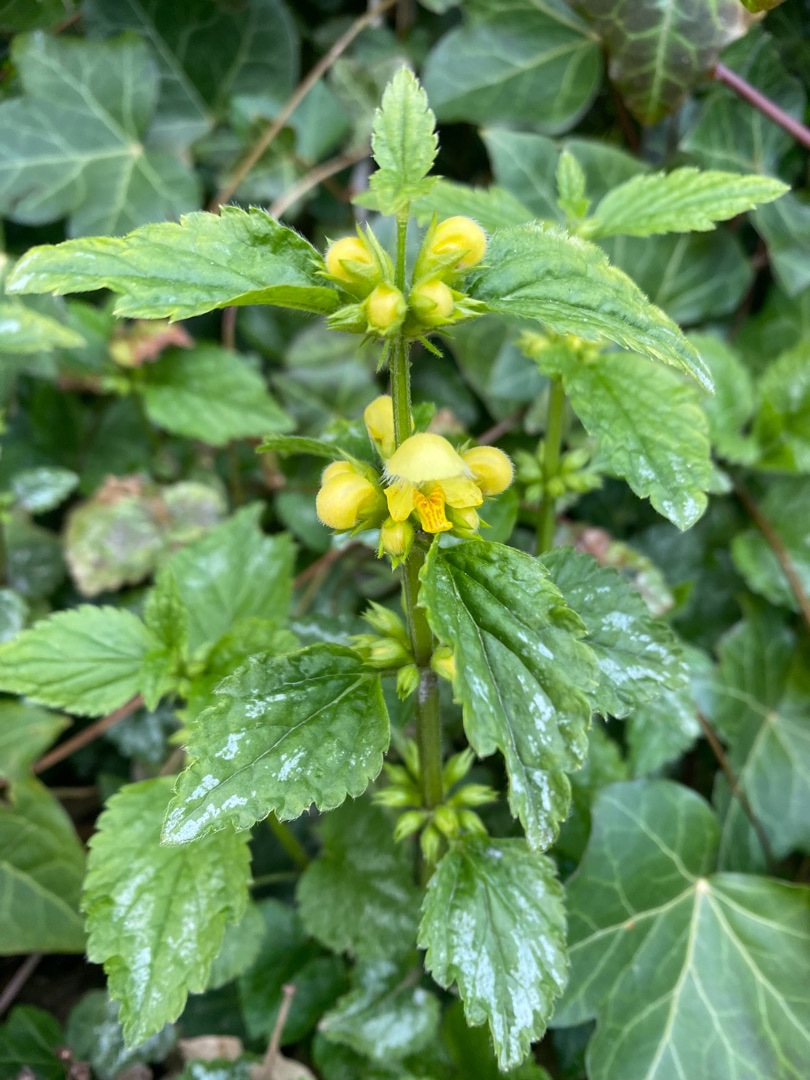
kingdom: Plantae
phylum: Tracheophyta
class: Magnoliopsida
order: Lamiales
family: Lamiaceae
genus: Lamium
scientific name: Lamium galeobdolon
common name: Guldnælde
